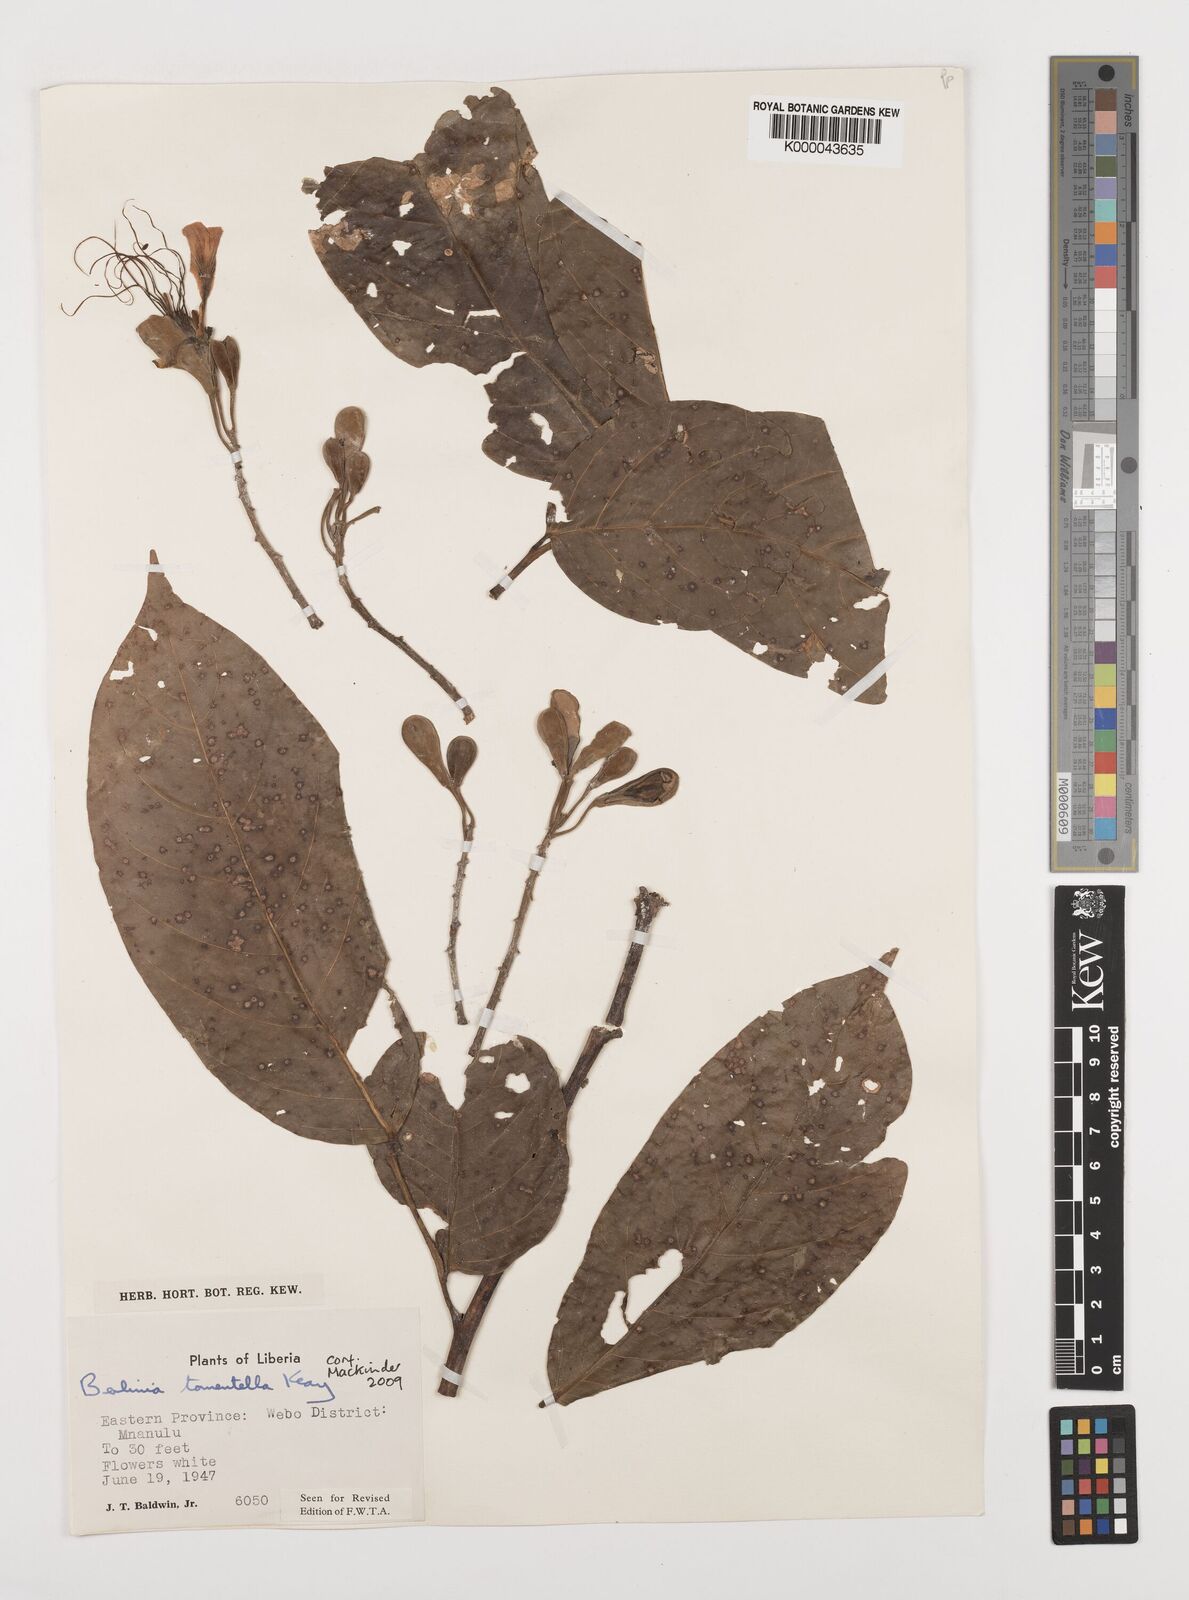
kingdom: Plantae
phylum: Tracheophyta
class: Magnoliopsida
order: Fabales
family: Fabaceae
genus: Berlinia
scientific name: Berlinia tomentella
